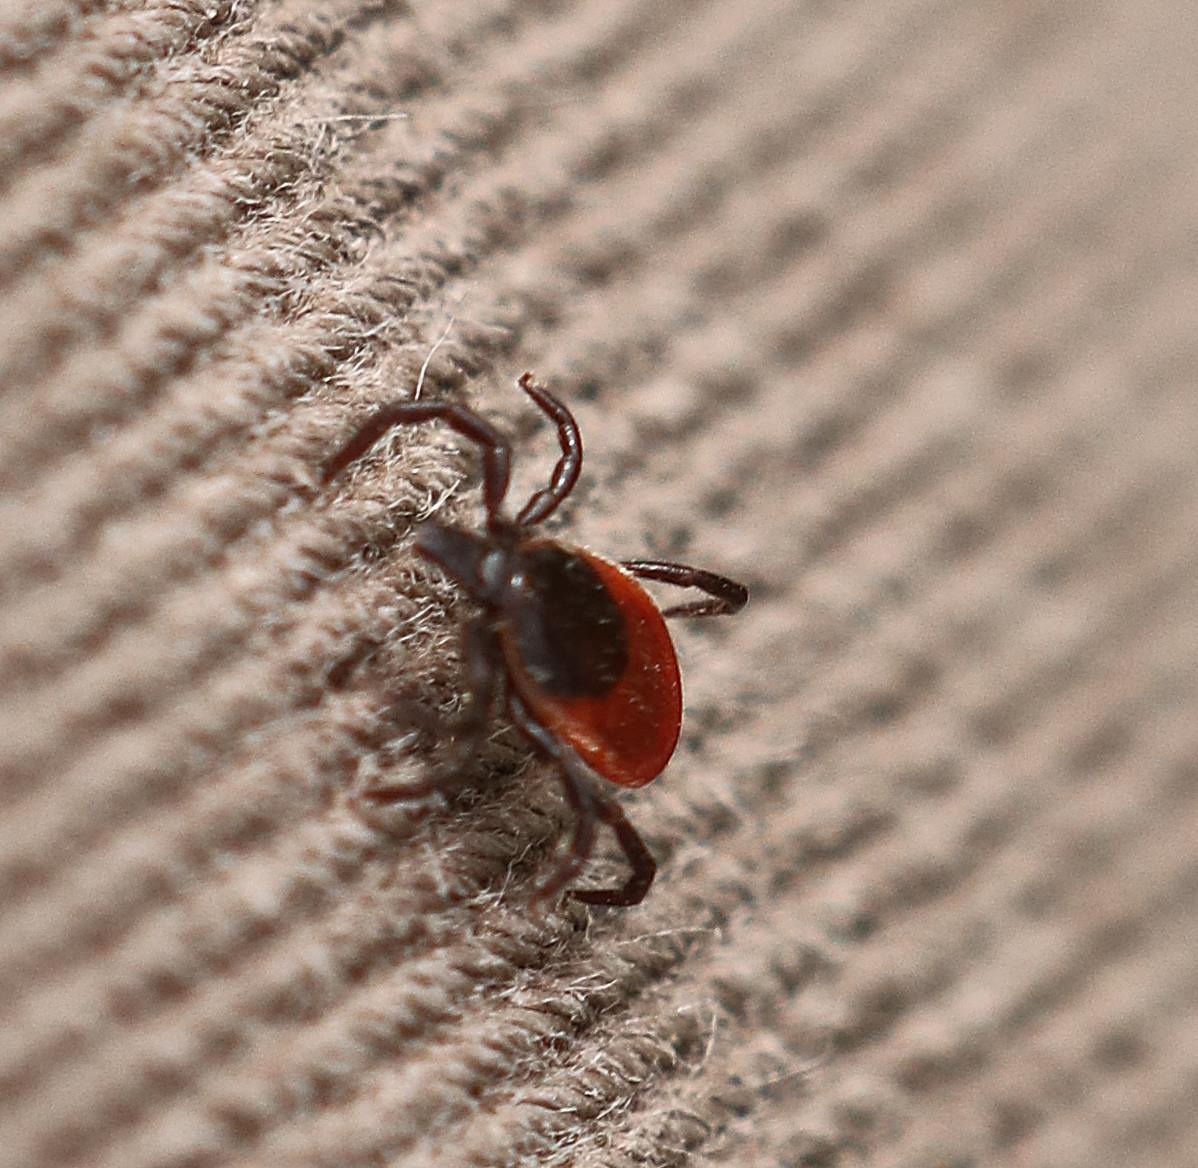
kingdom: Animalia
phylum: Arthropoda
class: Arachnida
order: Ixodida
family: Ixodidae
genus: Ixodes
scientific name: Ixodes ricinus
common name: Skovflåt
